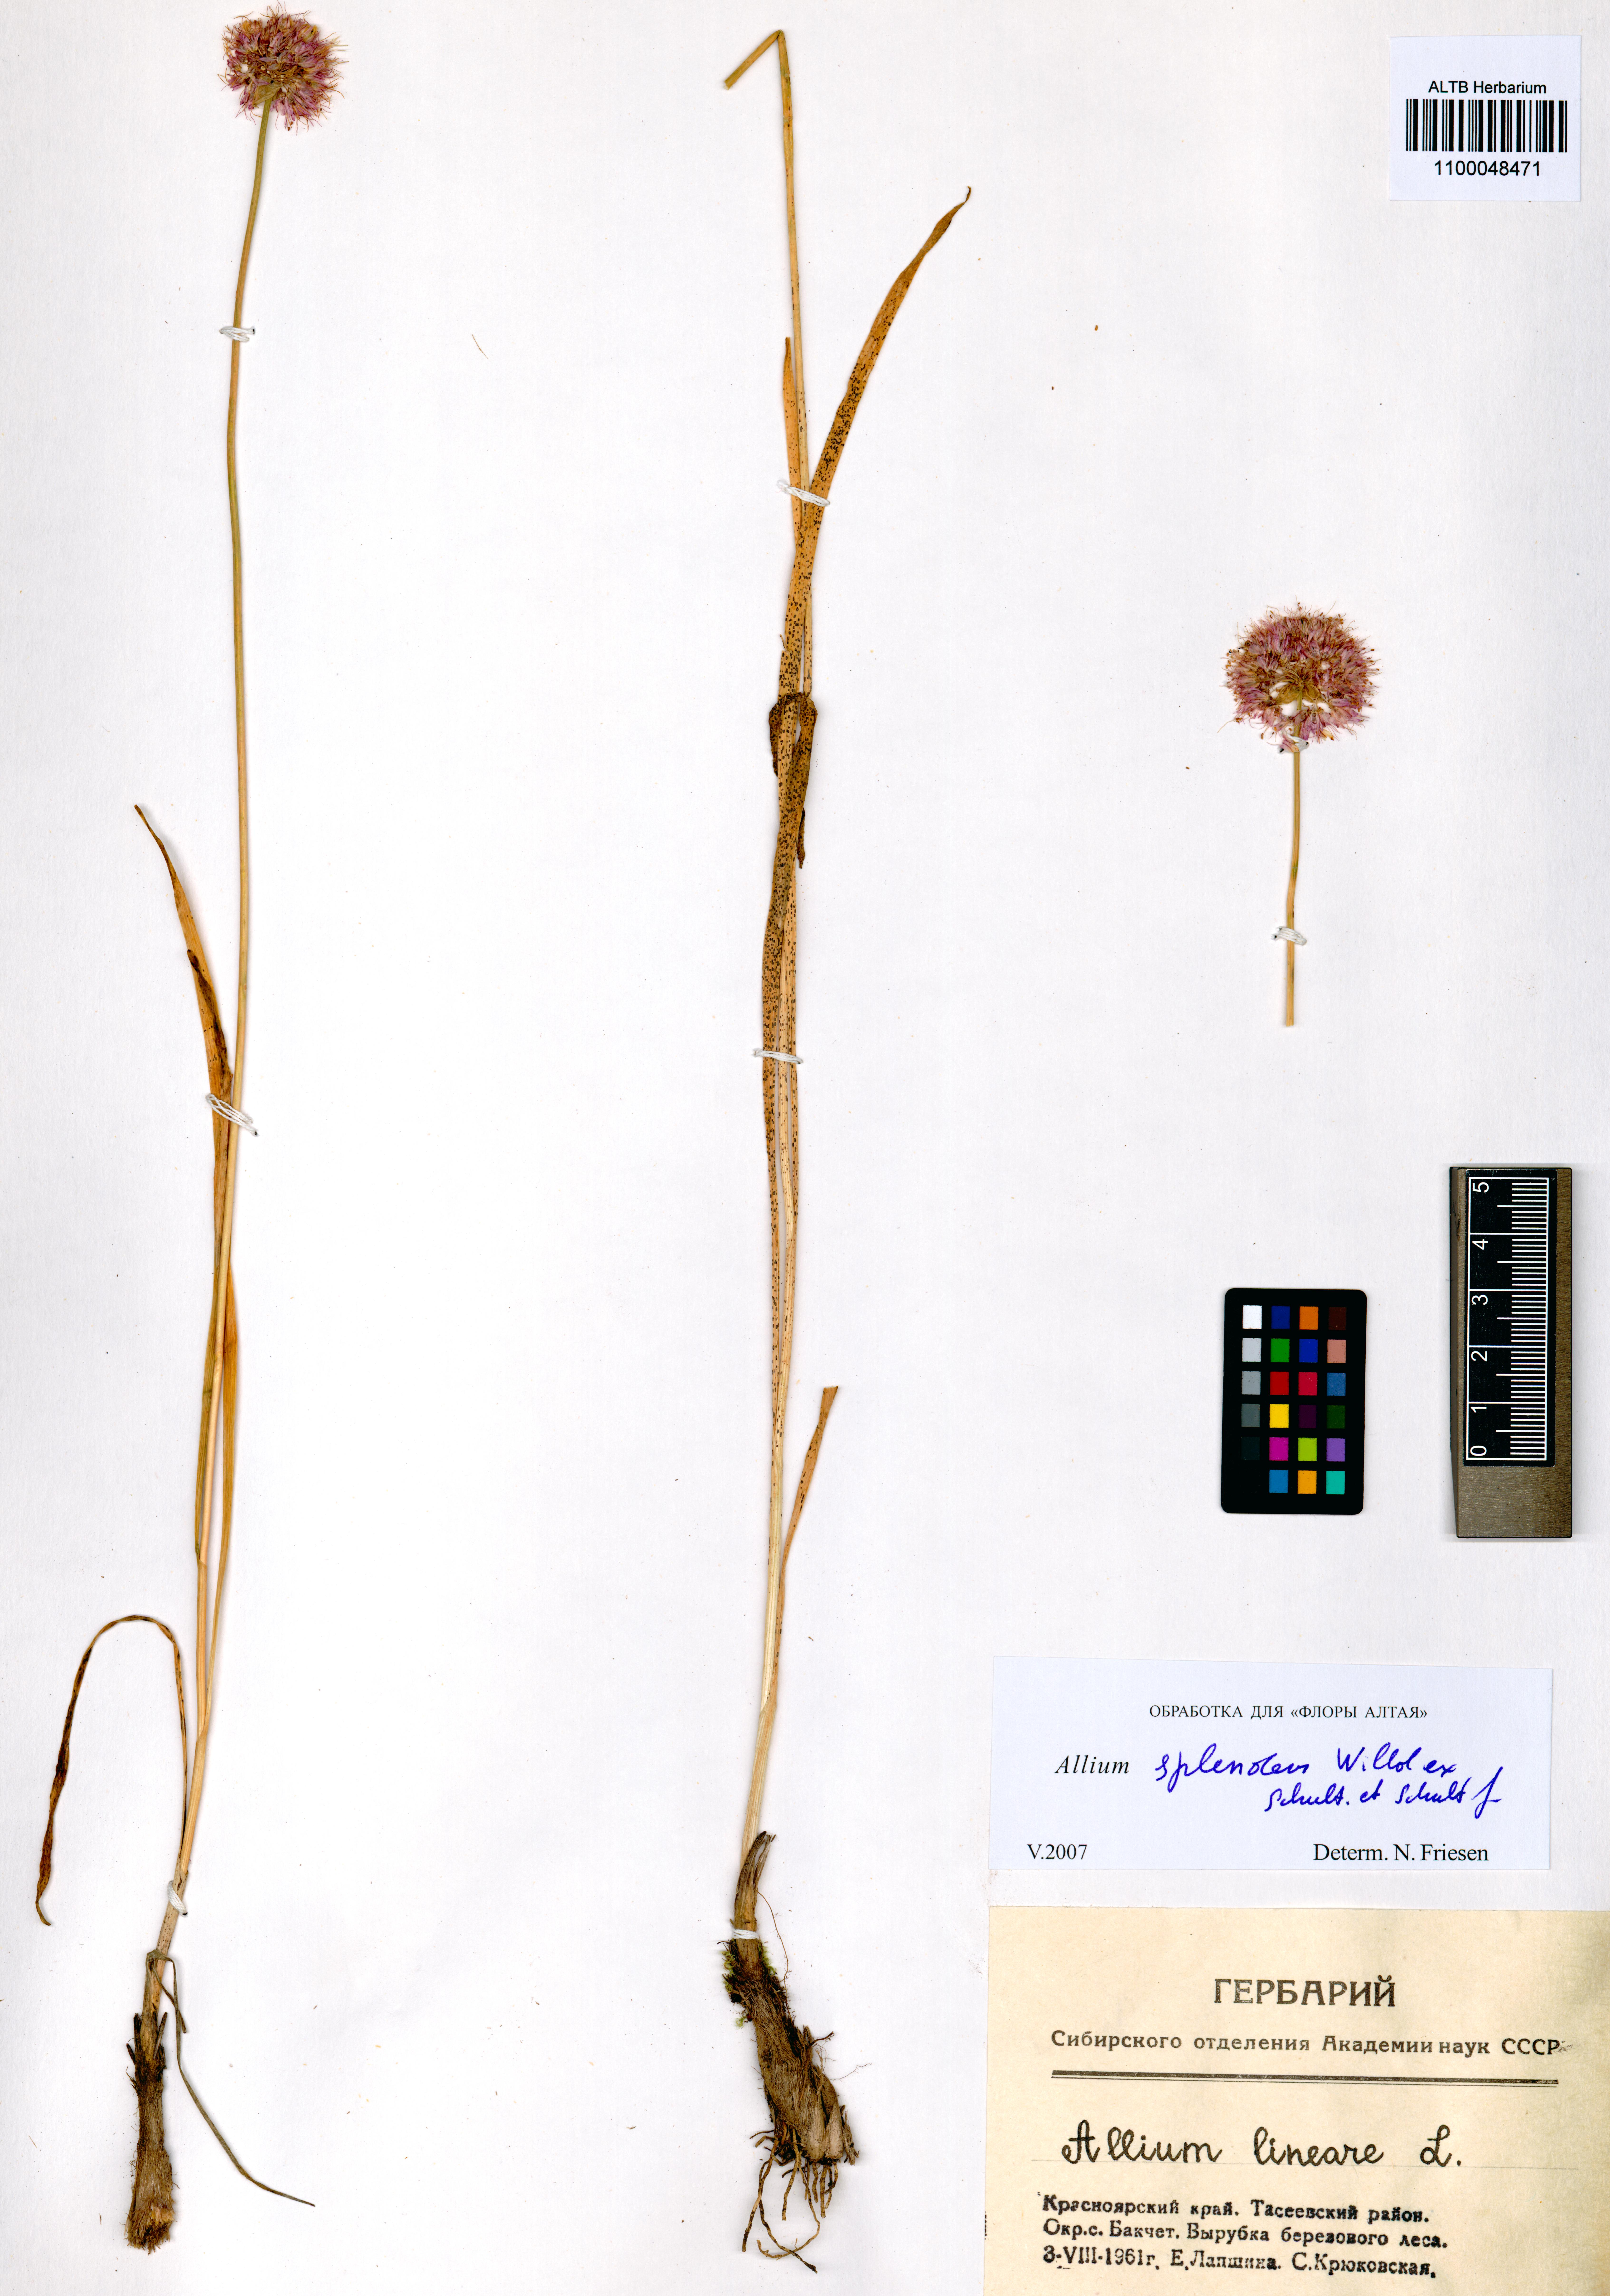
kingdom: Plantae
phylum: Tracheophyta
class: Liliopsida
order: Asparagales
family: Amaryllidaceae
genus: Allium
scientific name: Allium splendens
